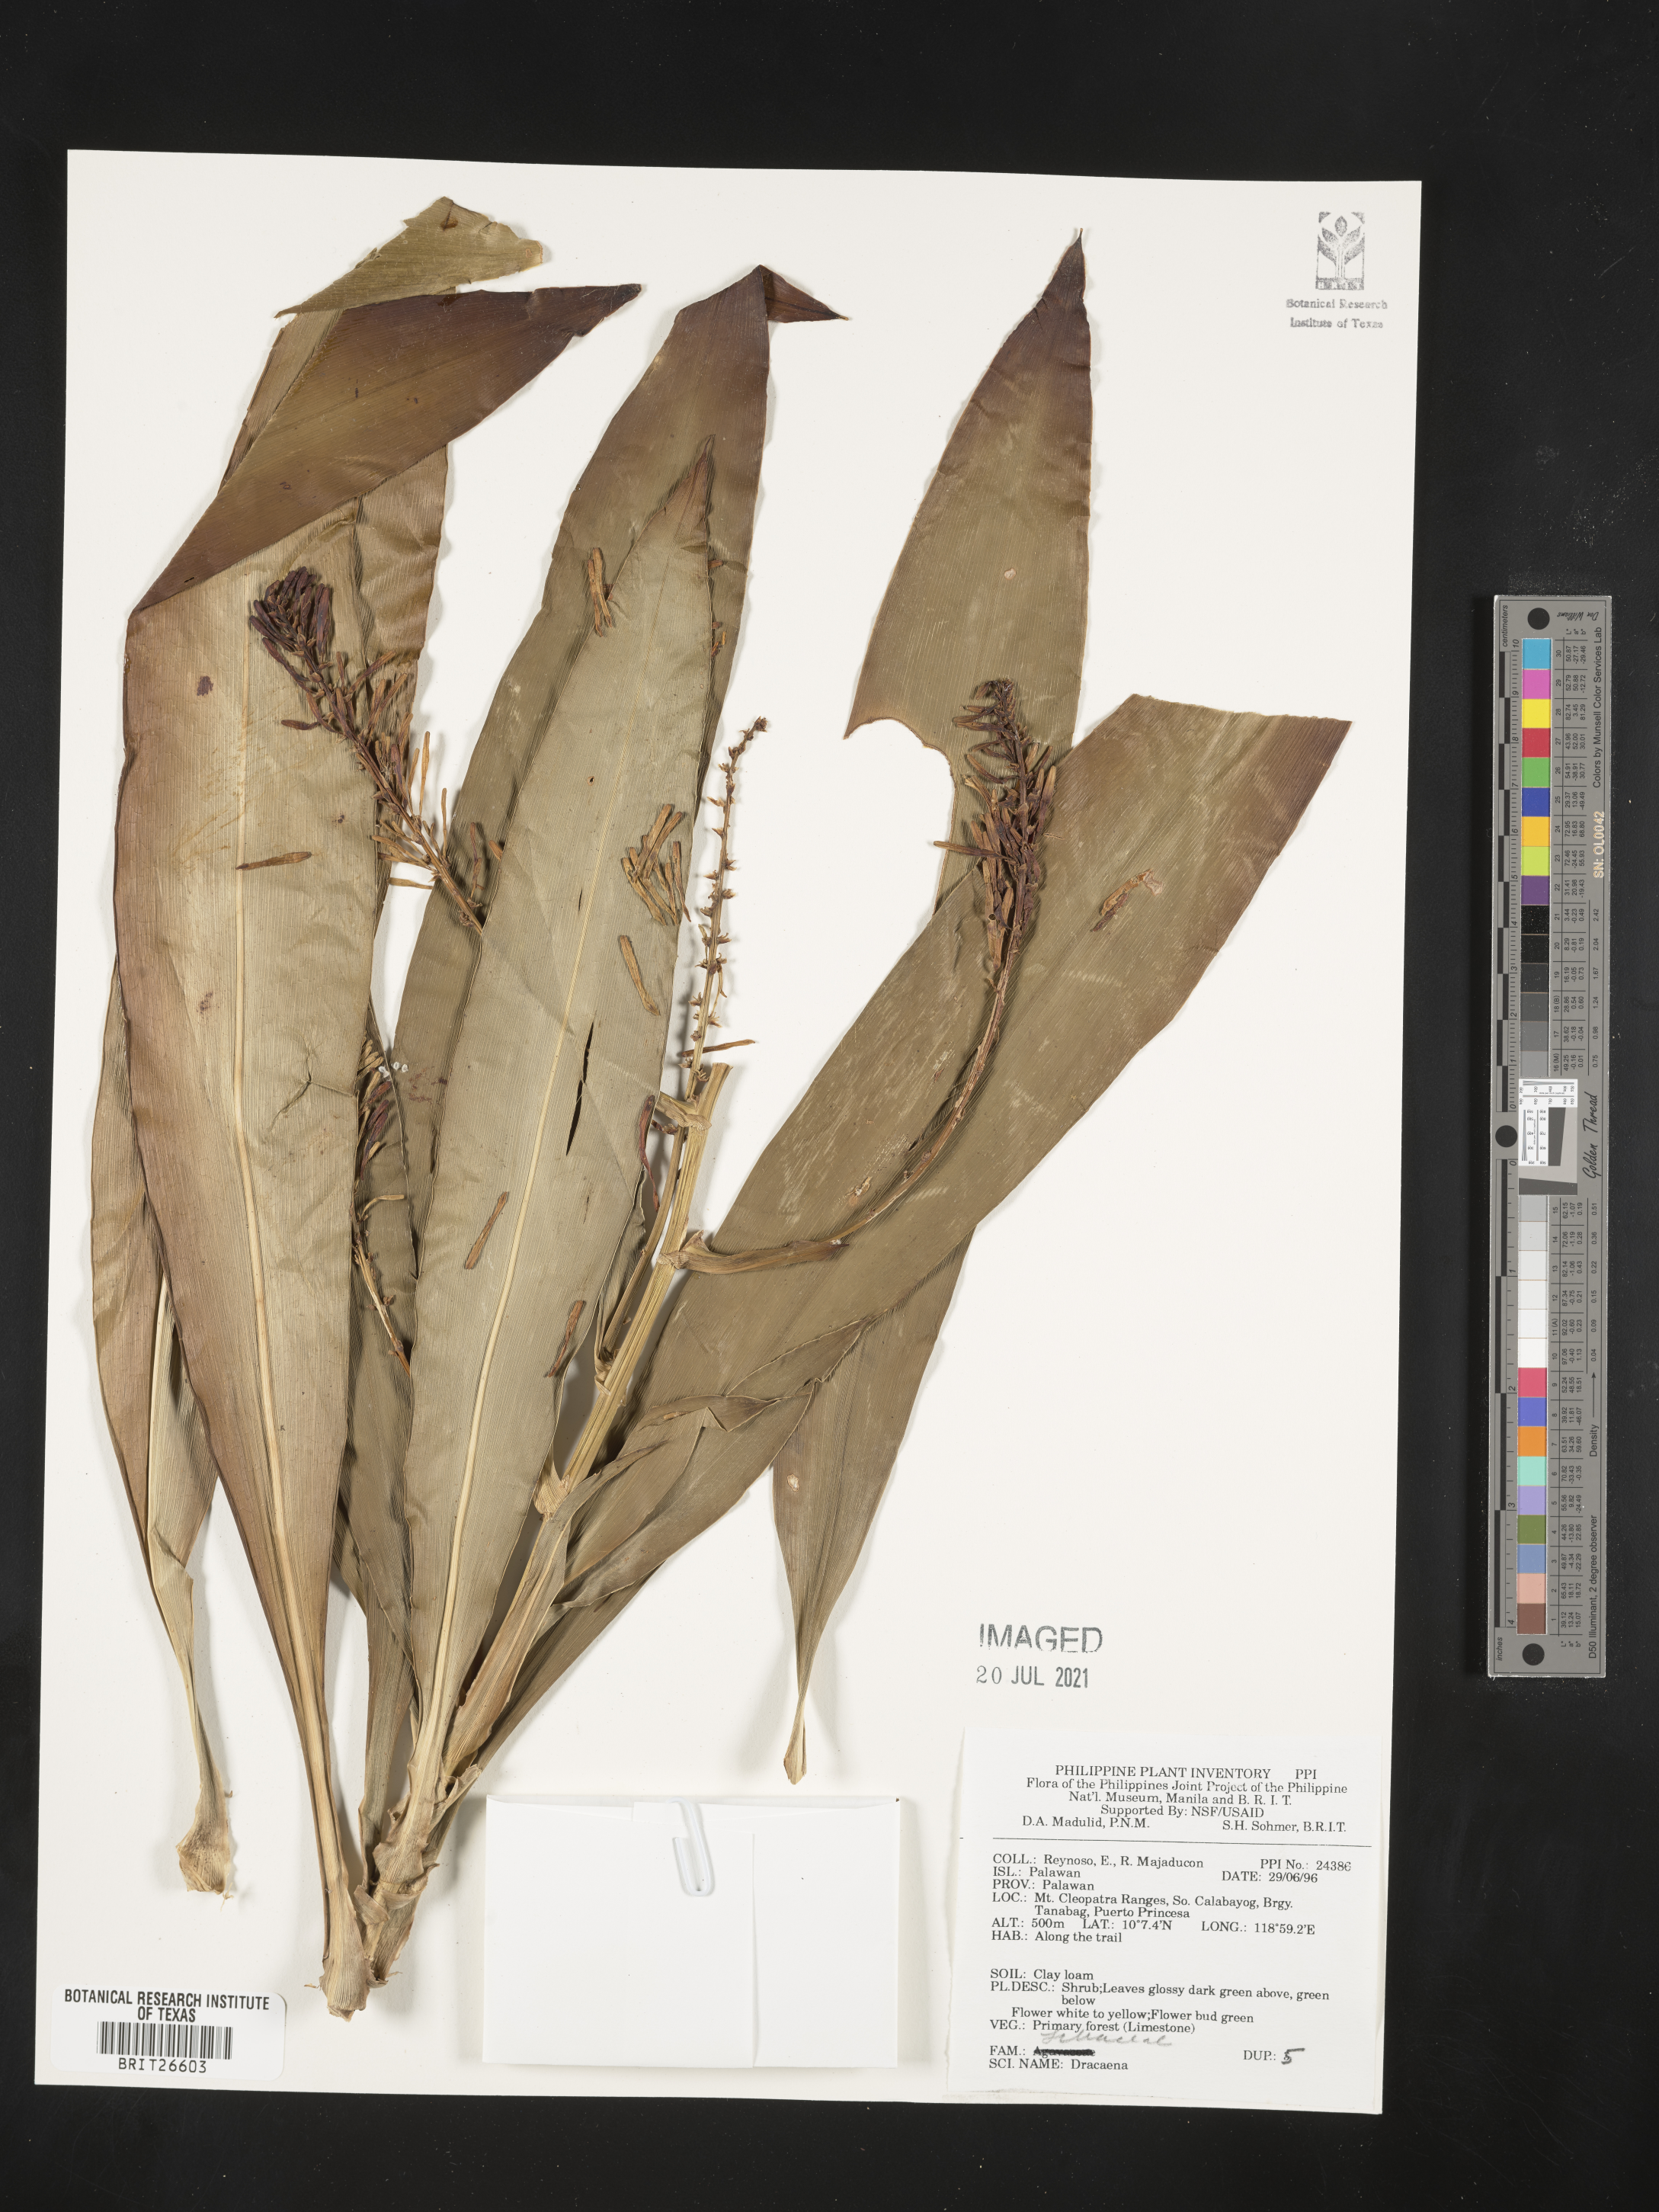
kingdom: Plantae
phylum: Tracheophyta
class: Liliopsida
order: Asparagales
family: Asparagaceae
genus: Dracaena
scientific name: Dracaena
